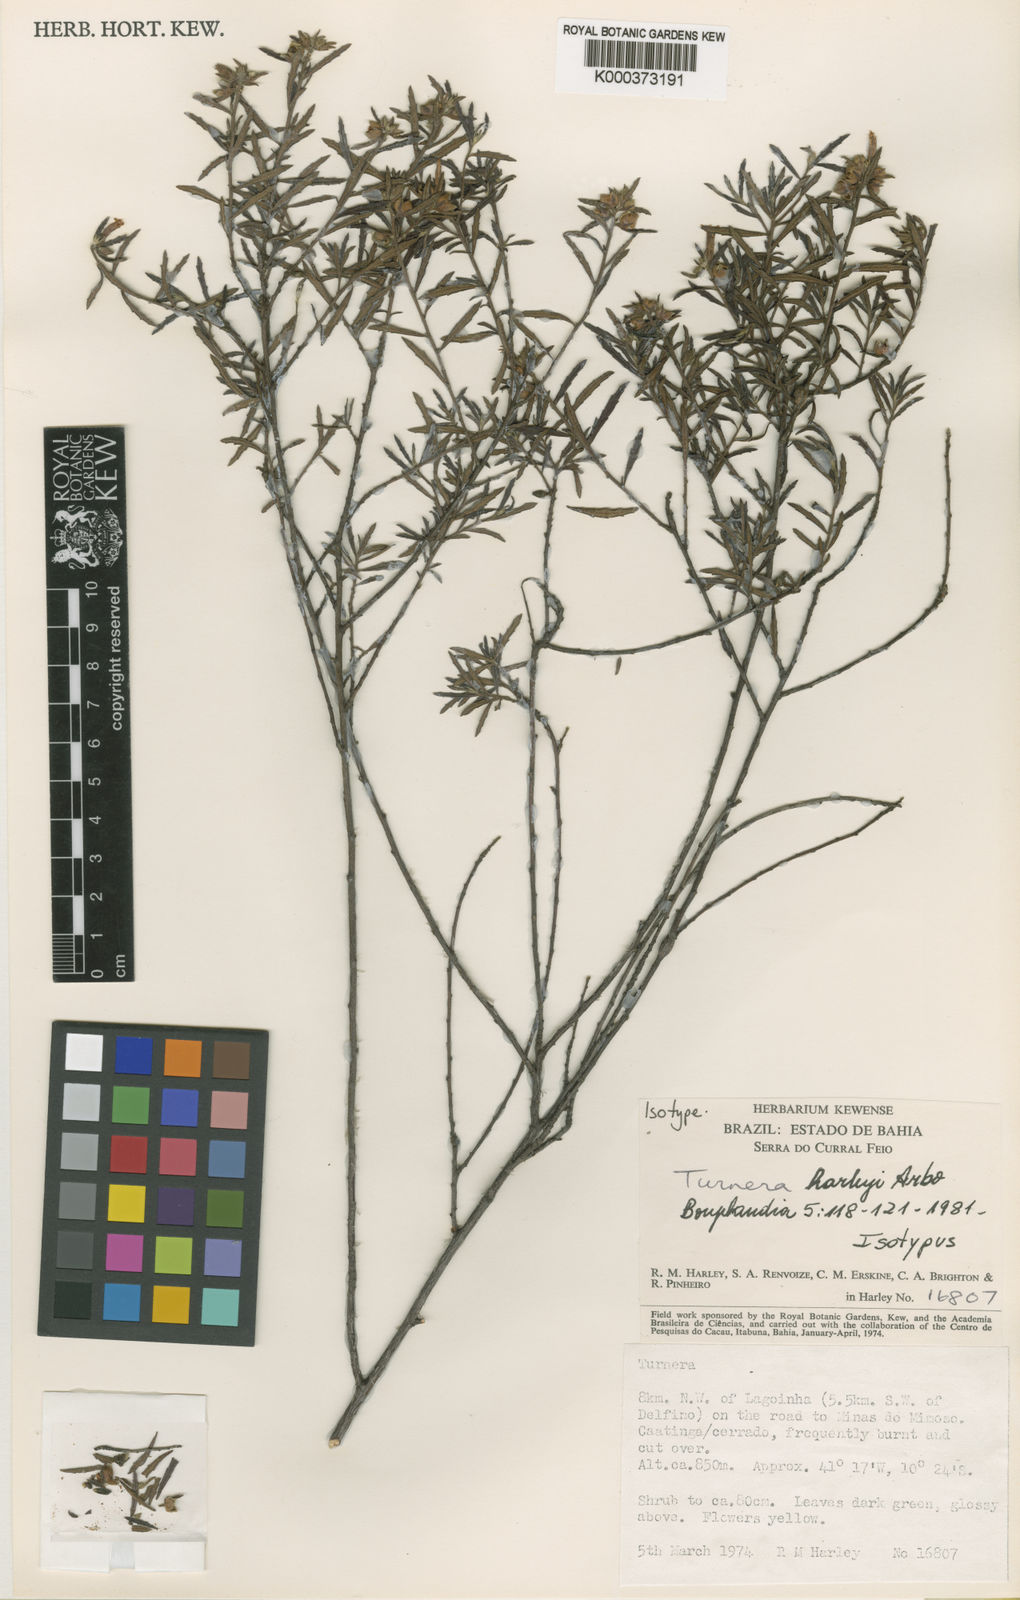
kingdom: Plantae
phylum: Tracheophyta
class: Magnoliopsida
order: Malpighiales
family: Turneraceae
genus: Turnera
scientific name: Turnera harleyi
